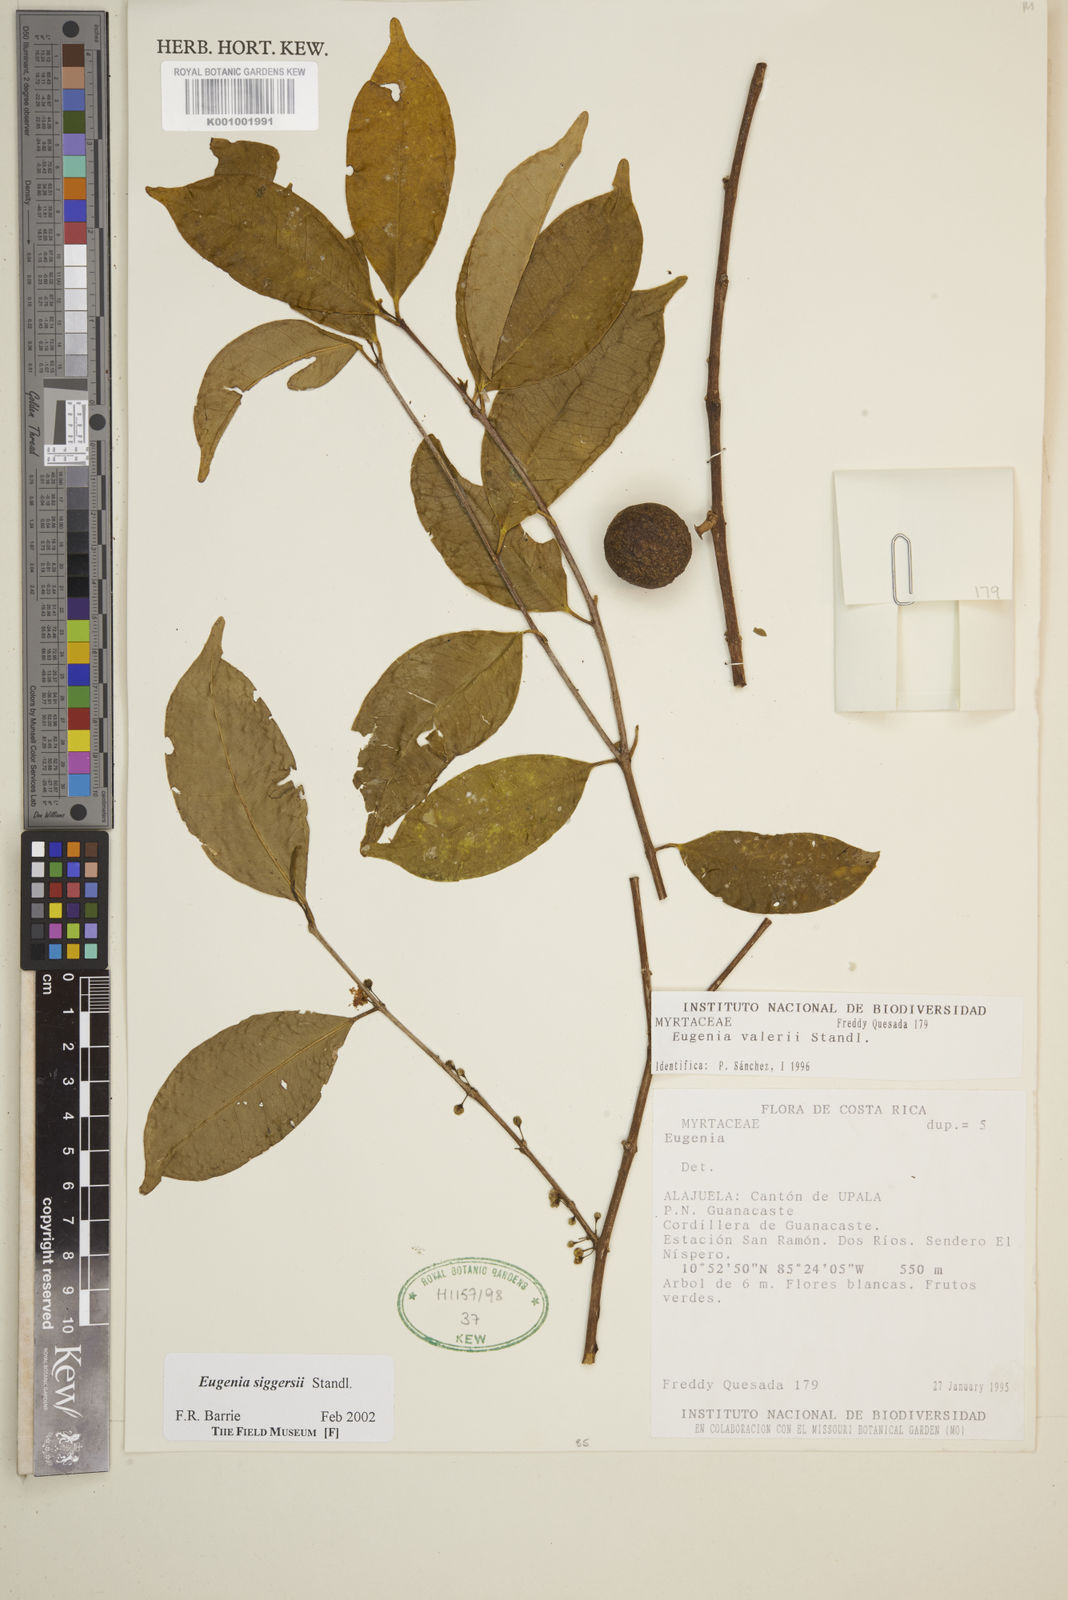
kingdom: Plantae
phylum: Tracheophyta
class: Magnoliopsida
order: Myrtales
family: Myrtaceae
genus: Eugenia
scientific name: Eugenia siggersii
